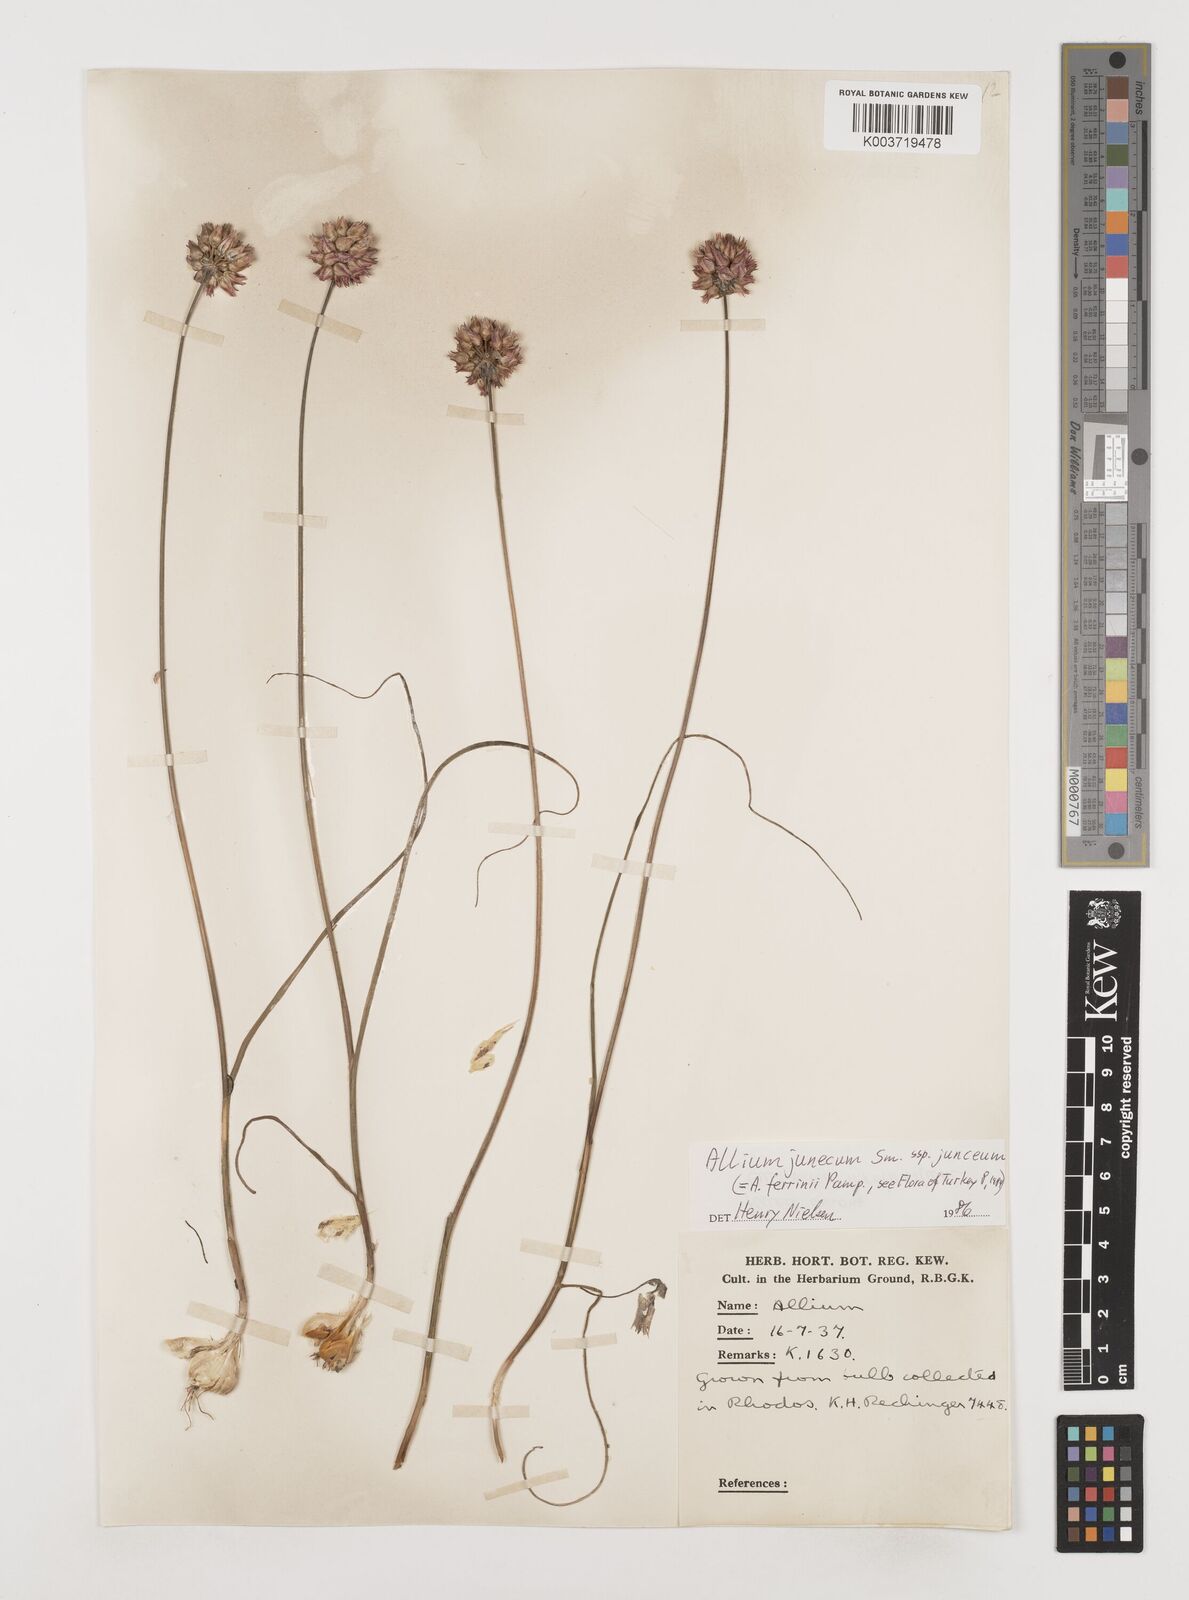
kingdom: Plantae
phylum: Tracheophyta
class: Liliopsida
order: Asparagales
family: Amaryllidaceae
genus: Allium
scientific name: Allium junceum
